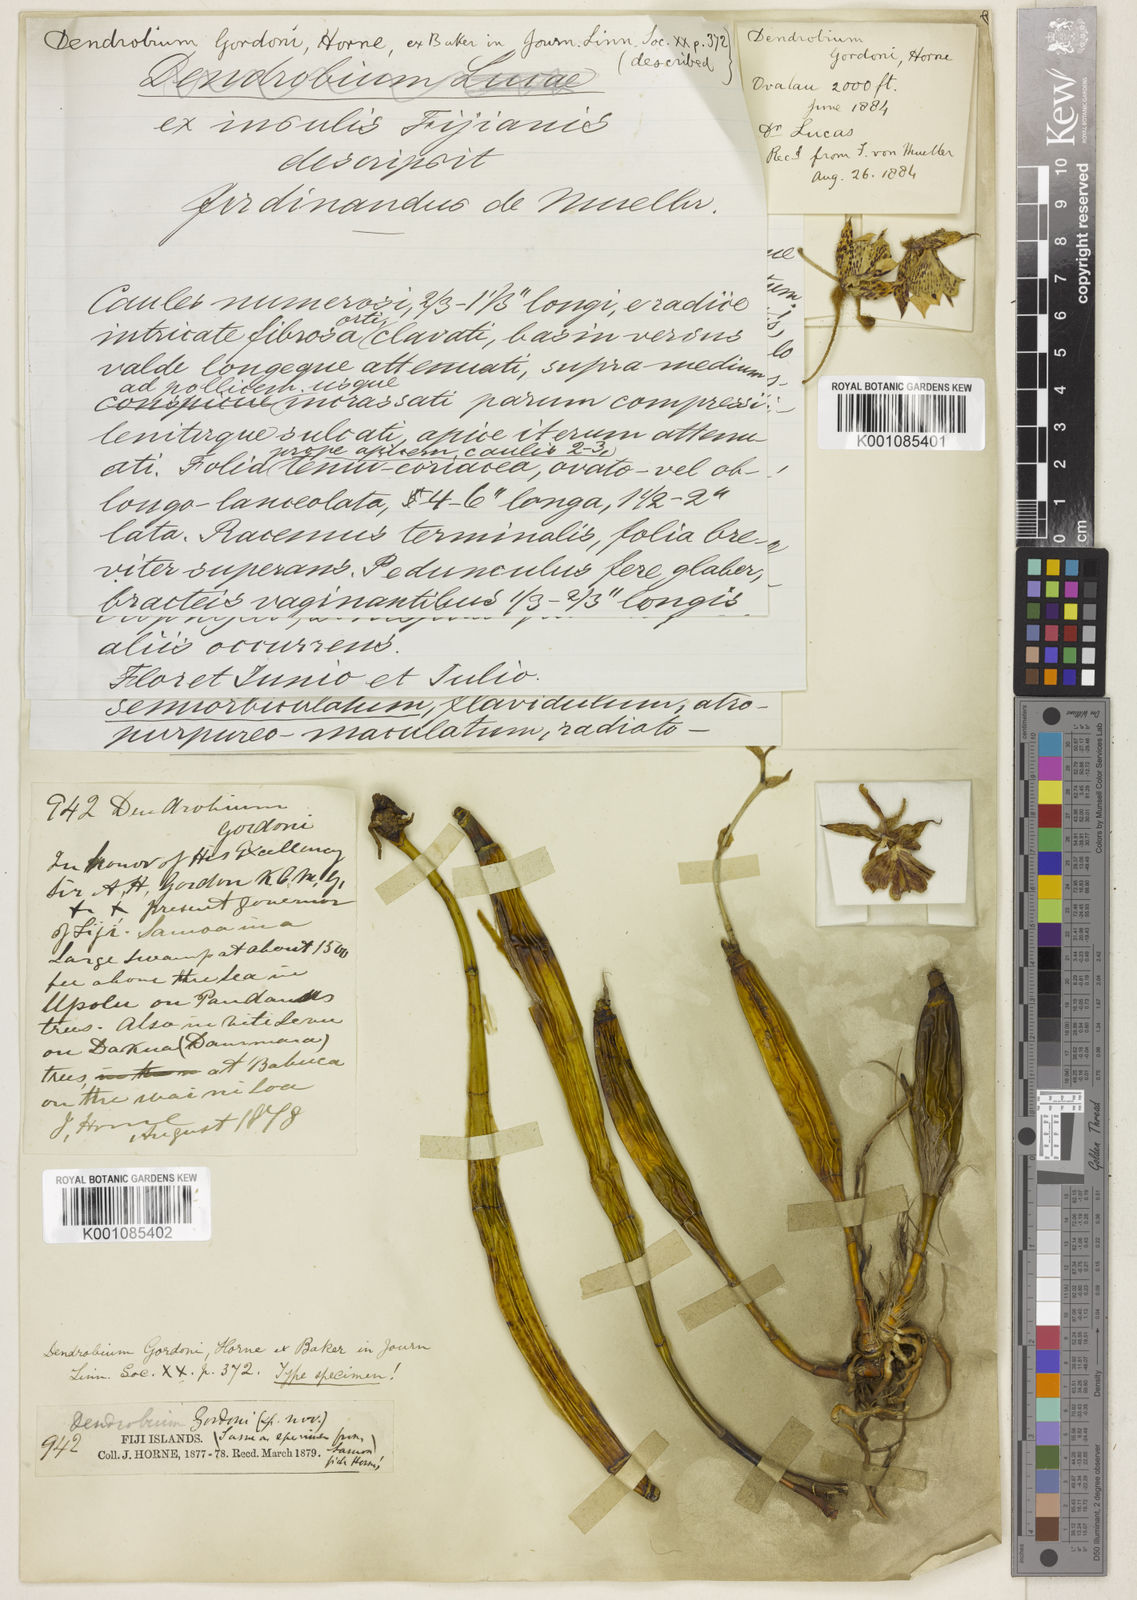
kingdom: Plantae
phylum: Tracheophyta
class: Liliopsida
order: Asparagales
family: Orchidaceae
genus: Dendrobium
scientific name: Dendrobium mooreanum
